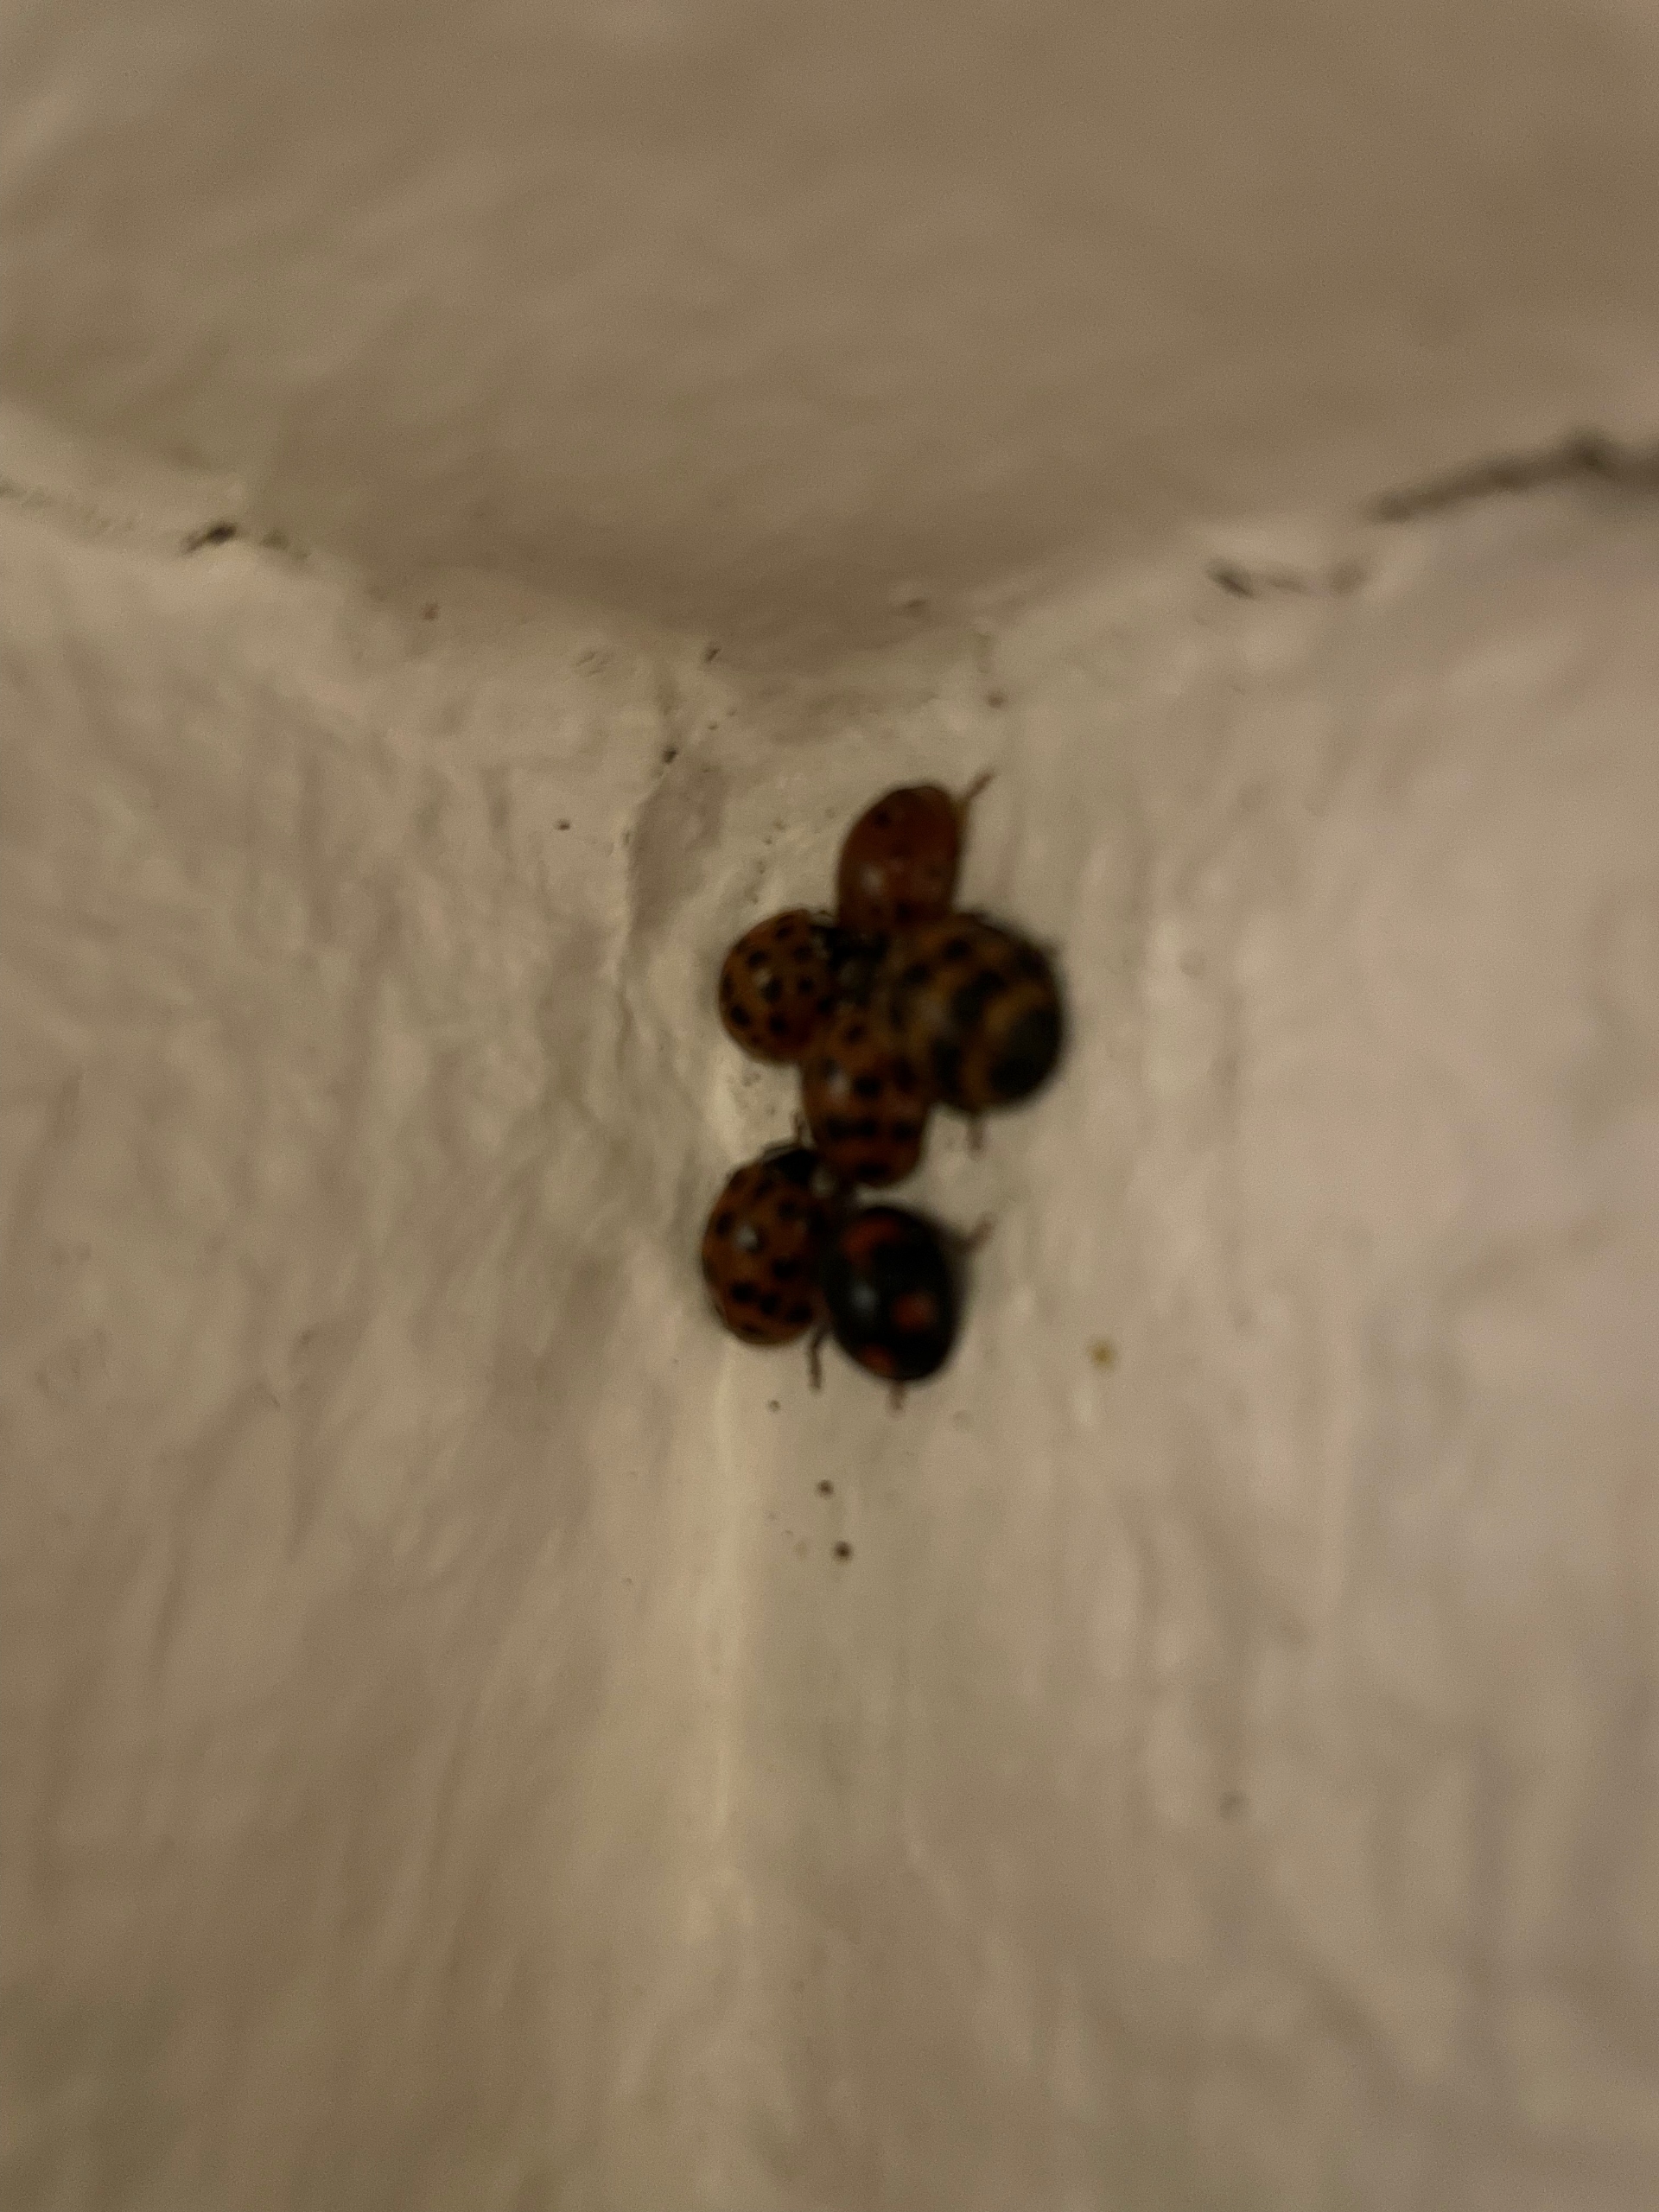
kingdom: Animalia
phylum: Arthropoda
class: Insecta
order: Coleoptera
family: Coccinellidae
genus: Harmonia
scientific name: Harmonia axyridis
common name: Harlekinmariehøne
